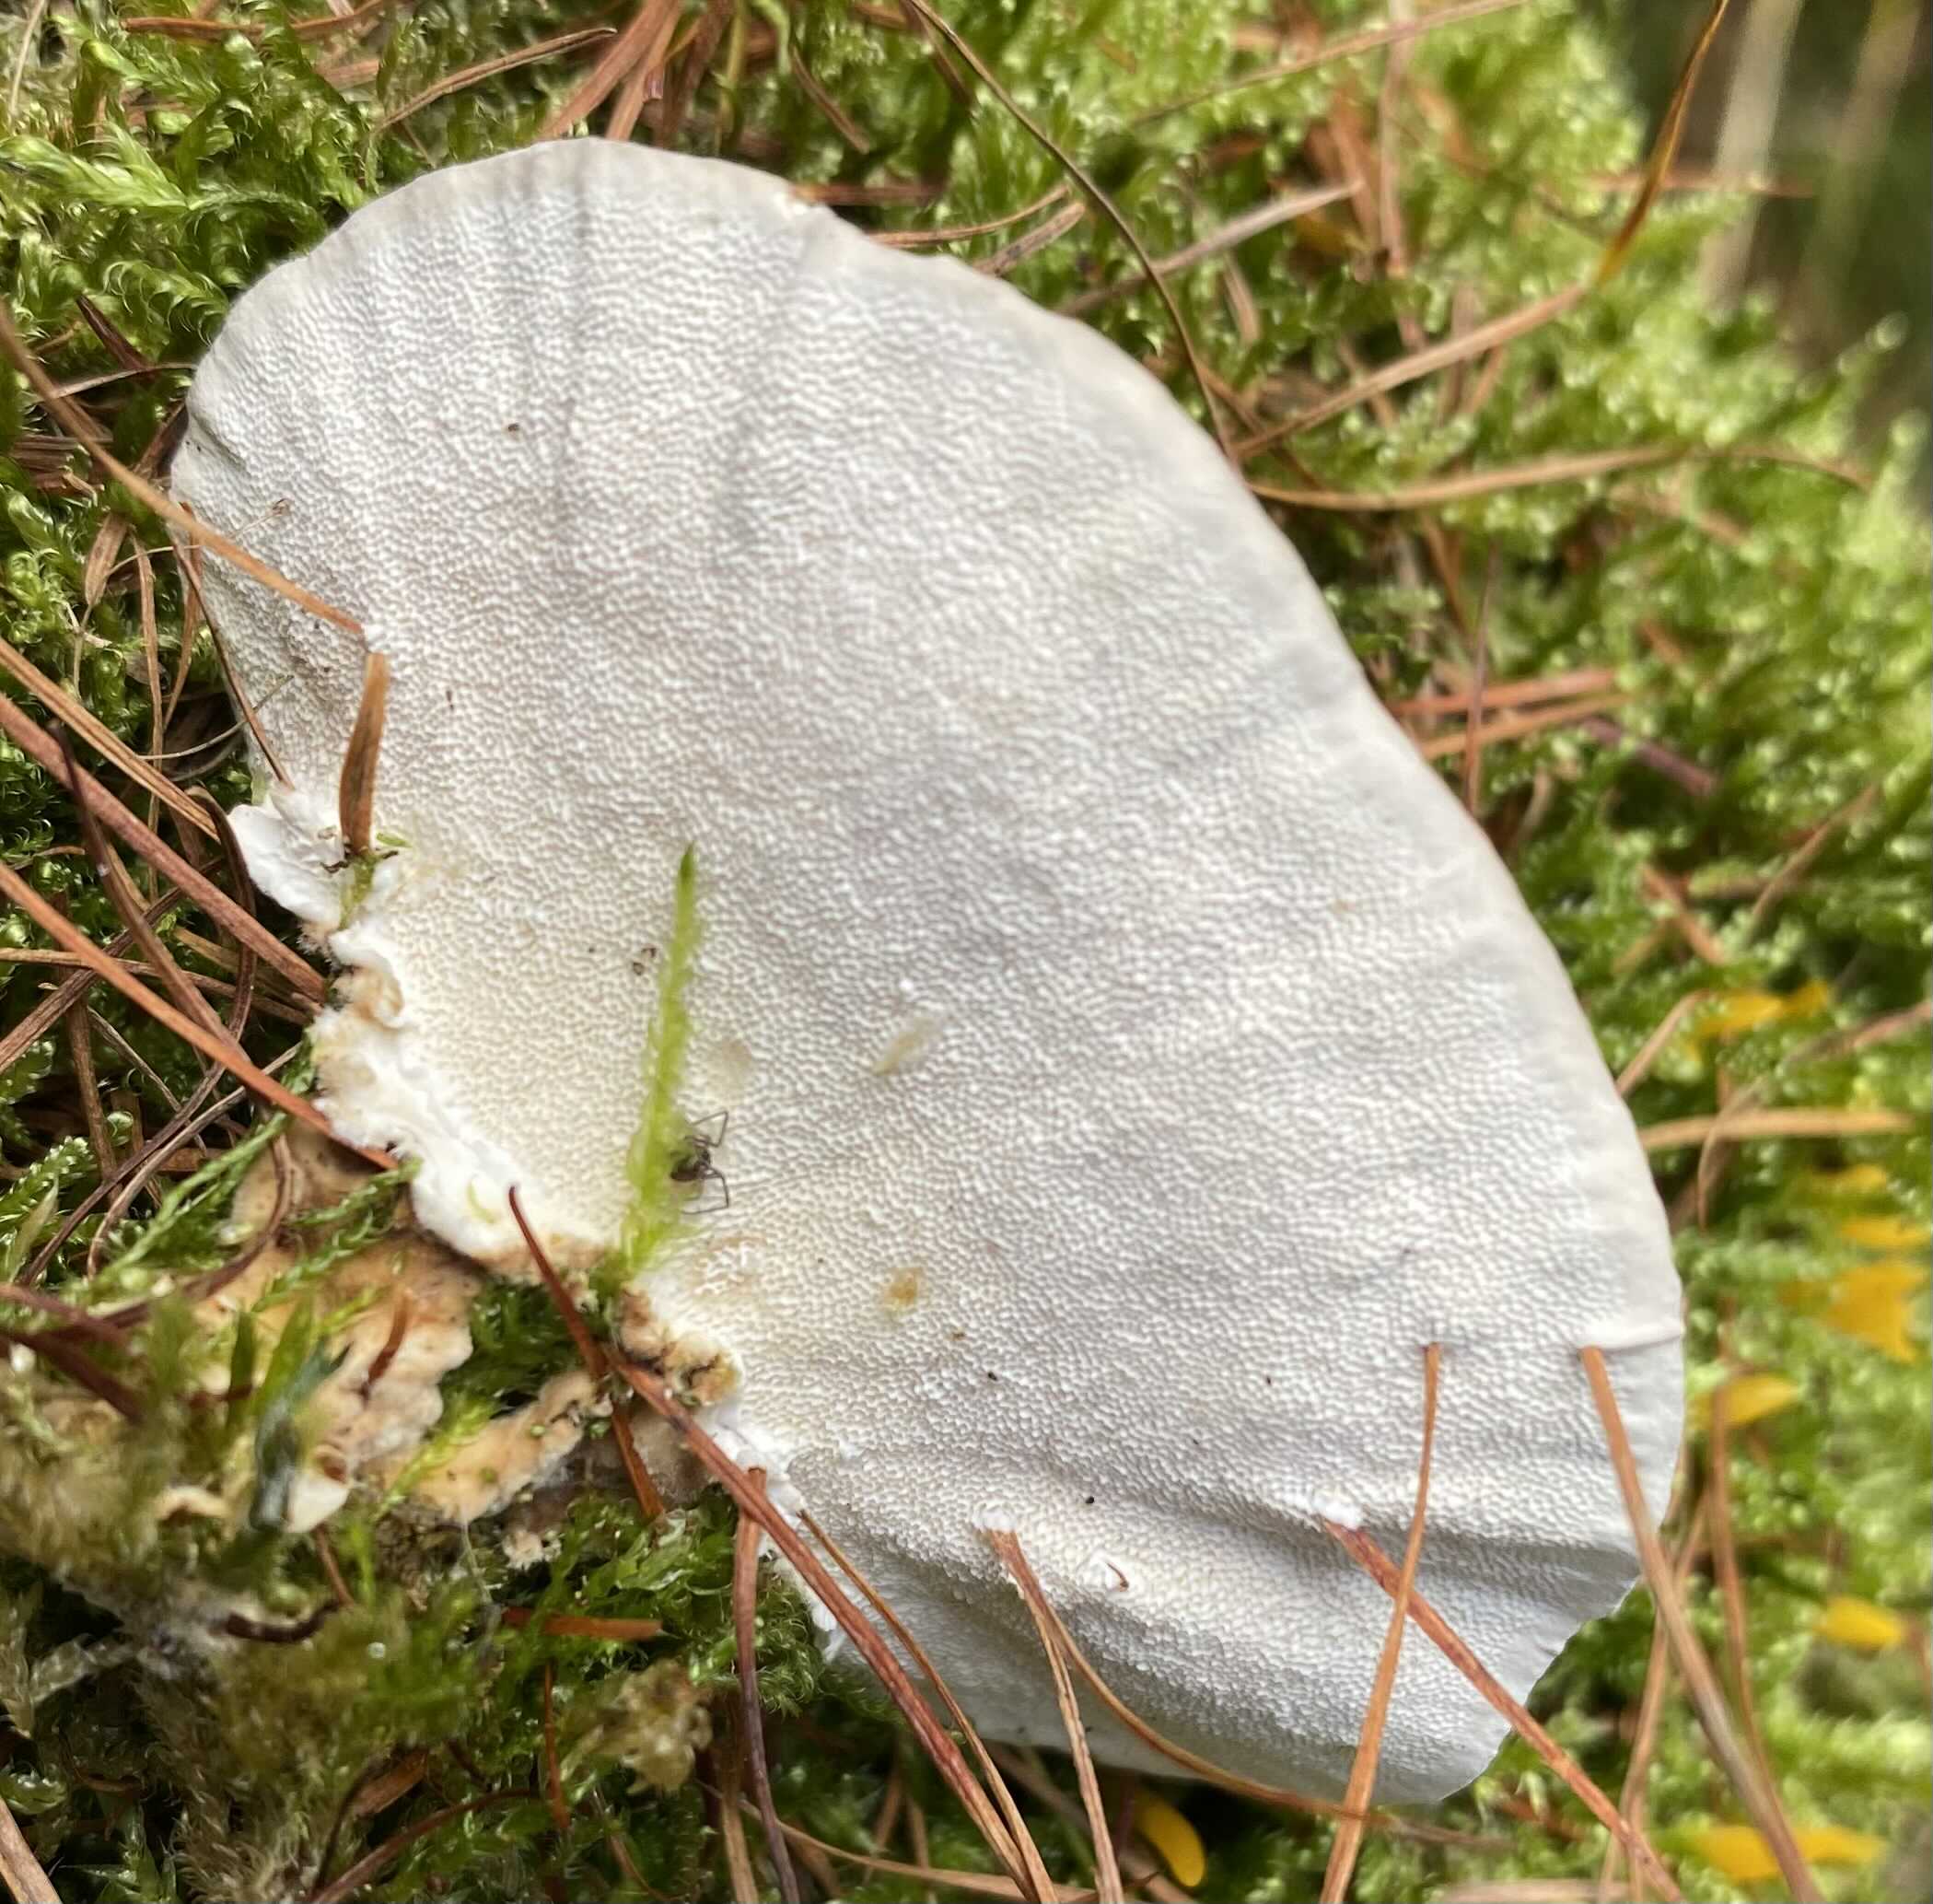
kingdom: Fungi
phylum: Basidiomycota
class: Agaricomycetes
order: Polyporales
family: Polyporaceae
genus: Trametes
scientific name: Trametes versicolor
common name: broget læderporesvamp
